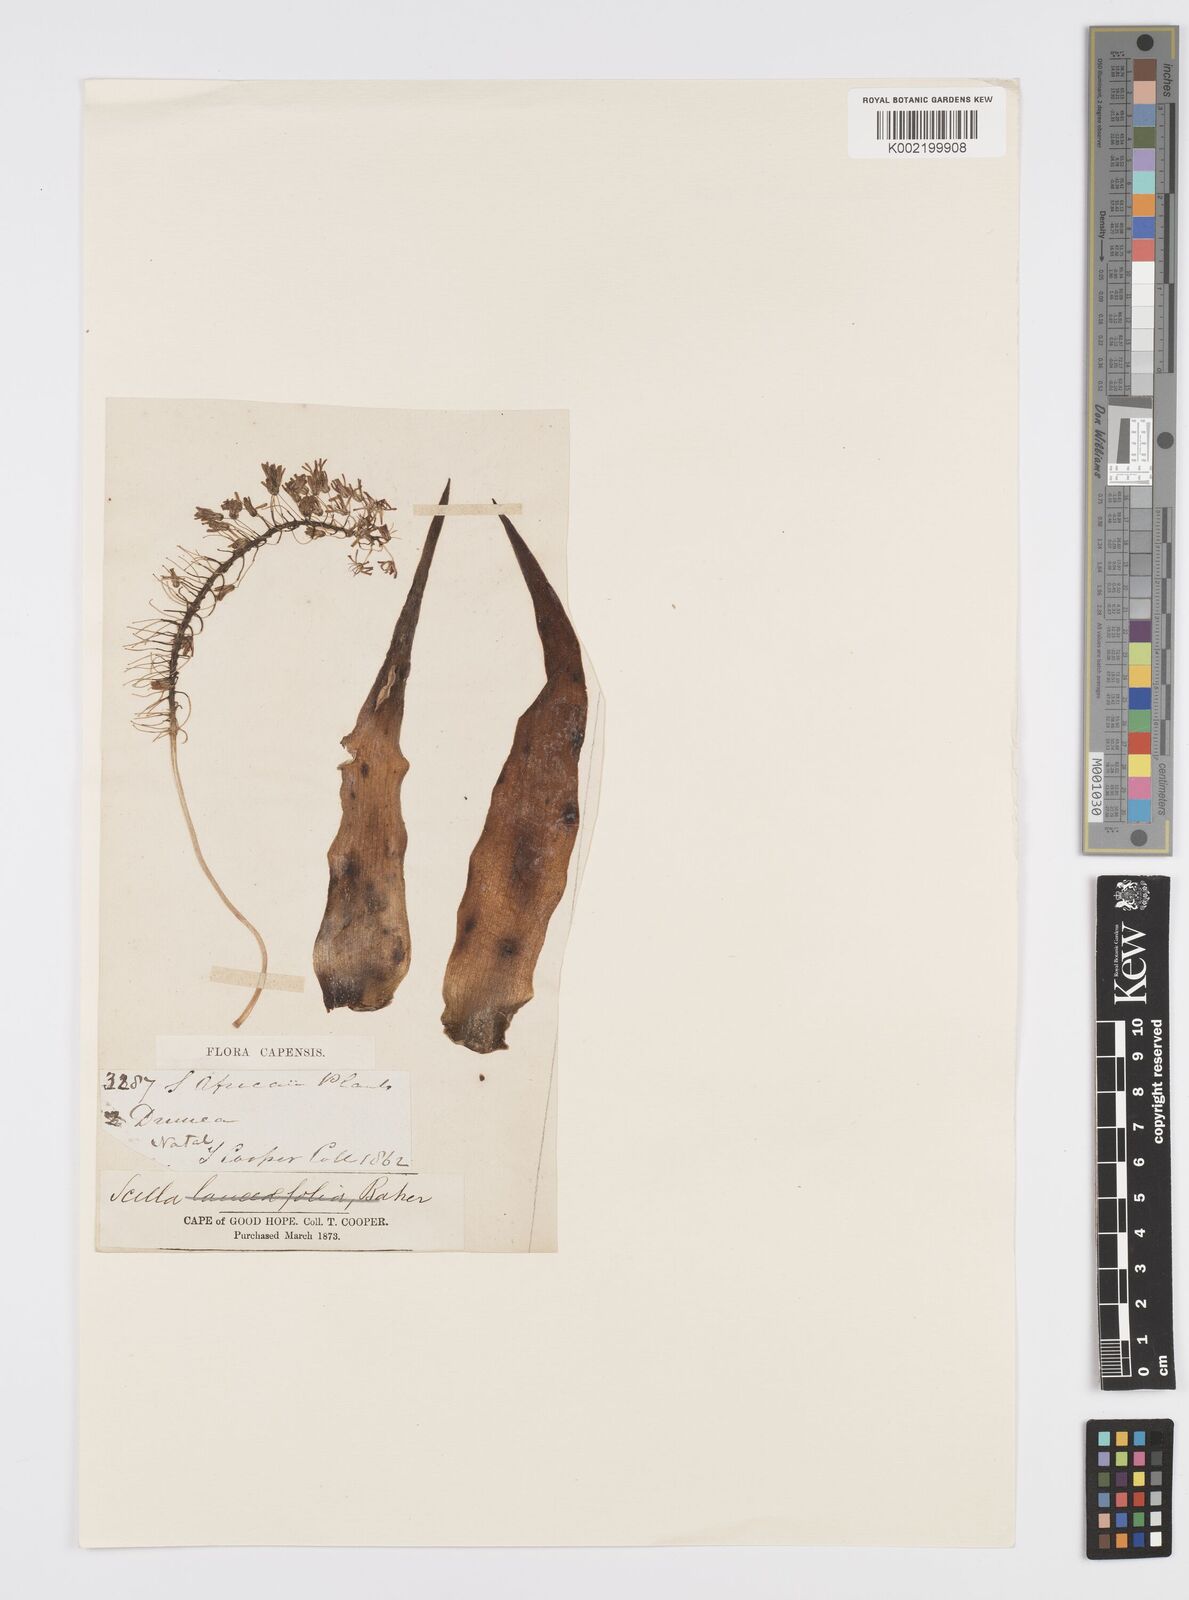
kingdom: Plantae
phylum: Tracheophyta
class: Liliopsida
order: Asparagales
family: Asparagaceae
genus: Ledebouria
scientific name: Ledebouria revoluta
